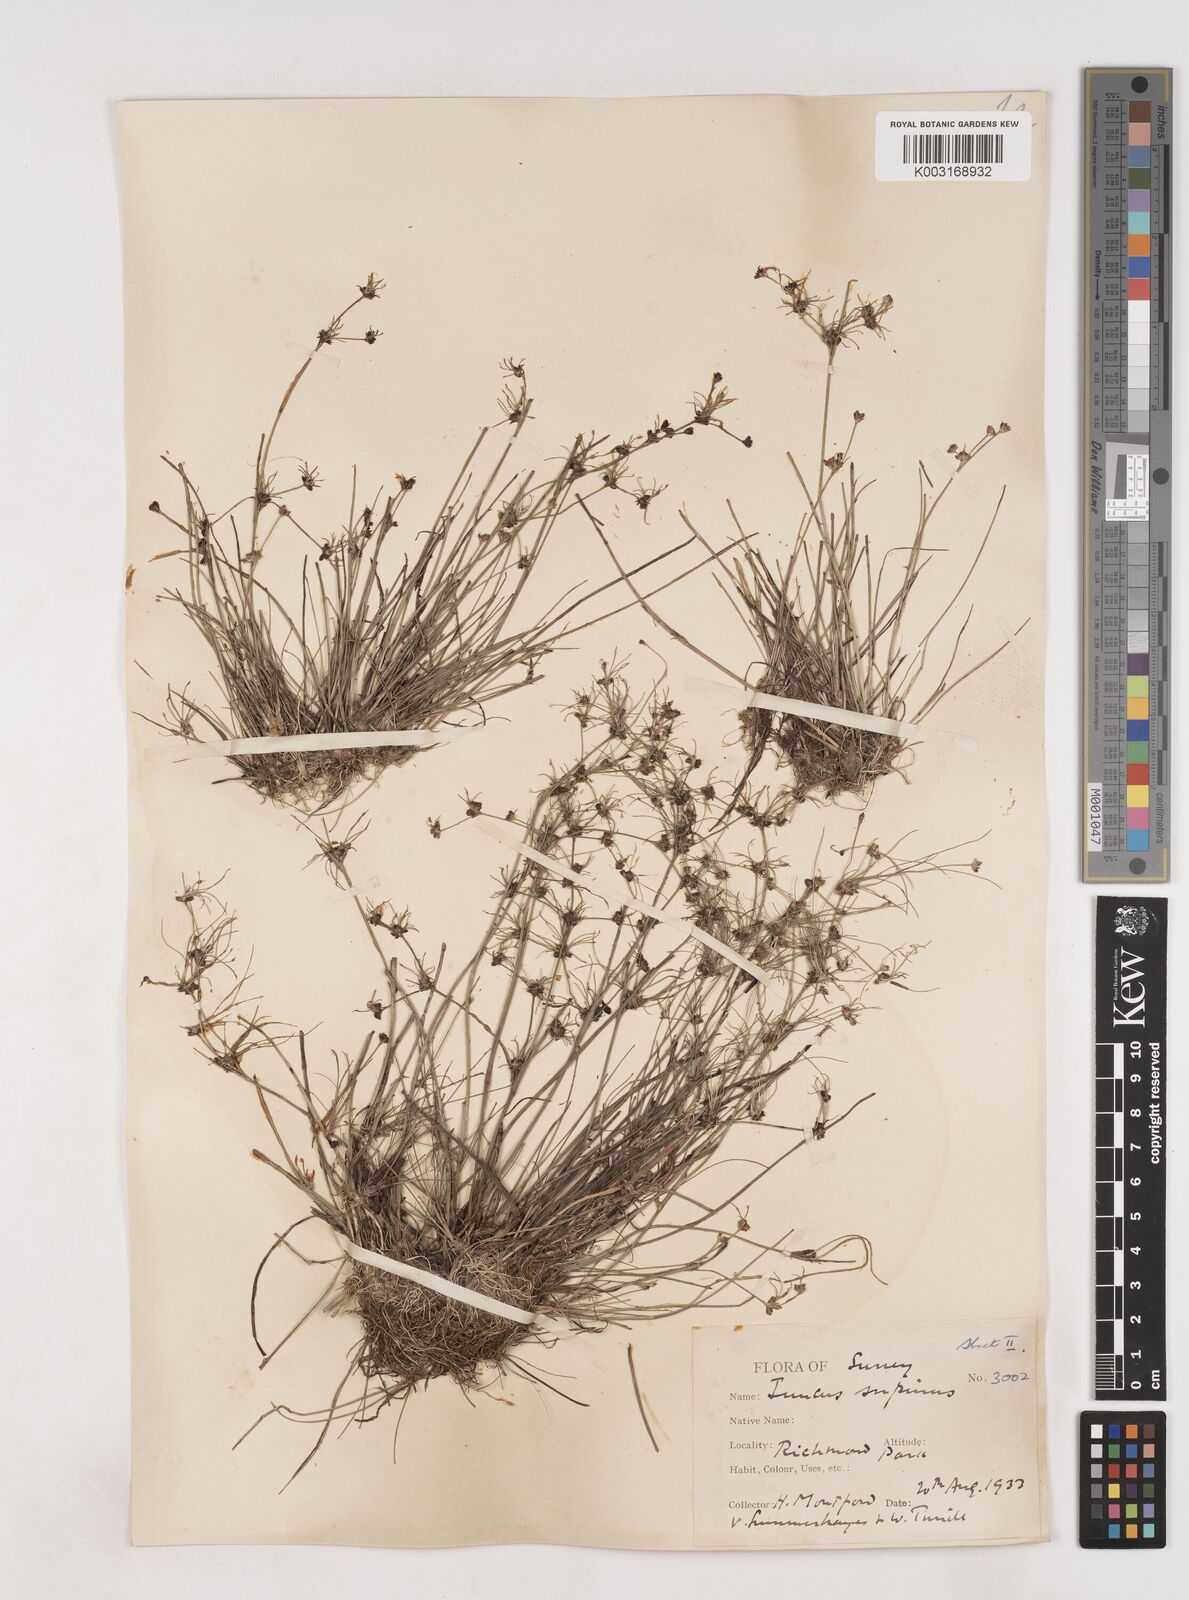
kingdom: Plantae
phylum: Tracheophyta
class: Liliopsida
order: Poales
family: Juncaceae
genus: Juncus
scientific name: Juncus bulbosus
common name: Bulbous rush
